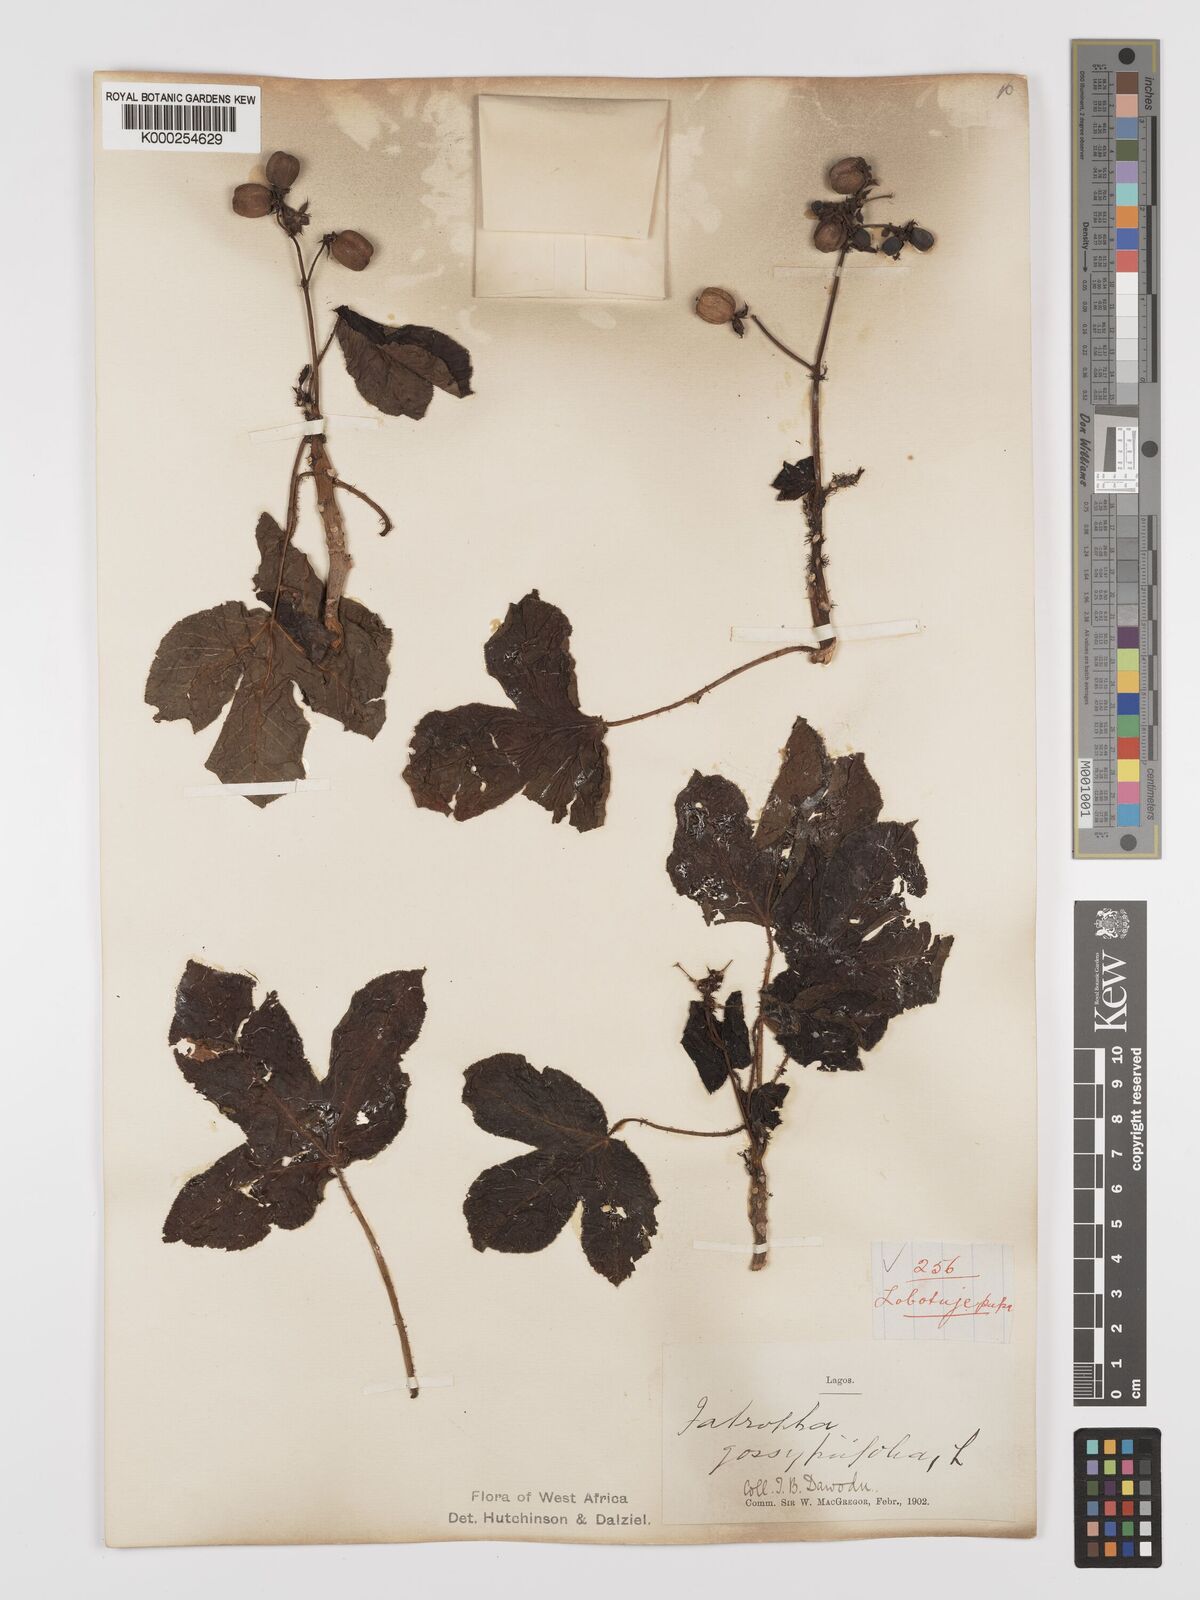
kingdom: Plantae
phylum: Tracheophyta
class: Magnoliopsida
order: Malpighiales
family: Euphorbiaceae
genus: Jatropha
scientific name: Jatropha gossypiifolia
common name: Bellyache bush
